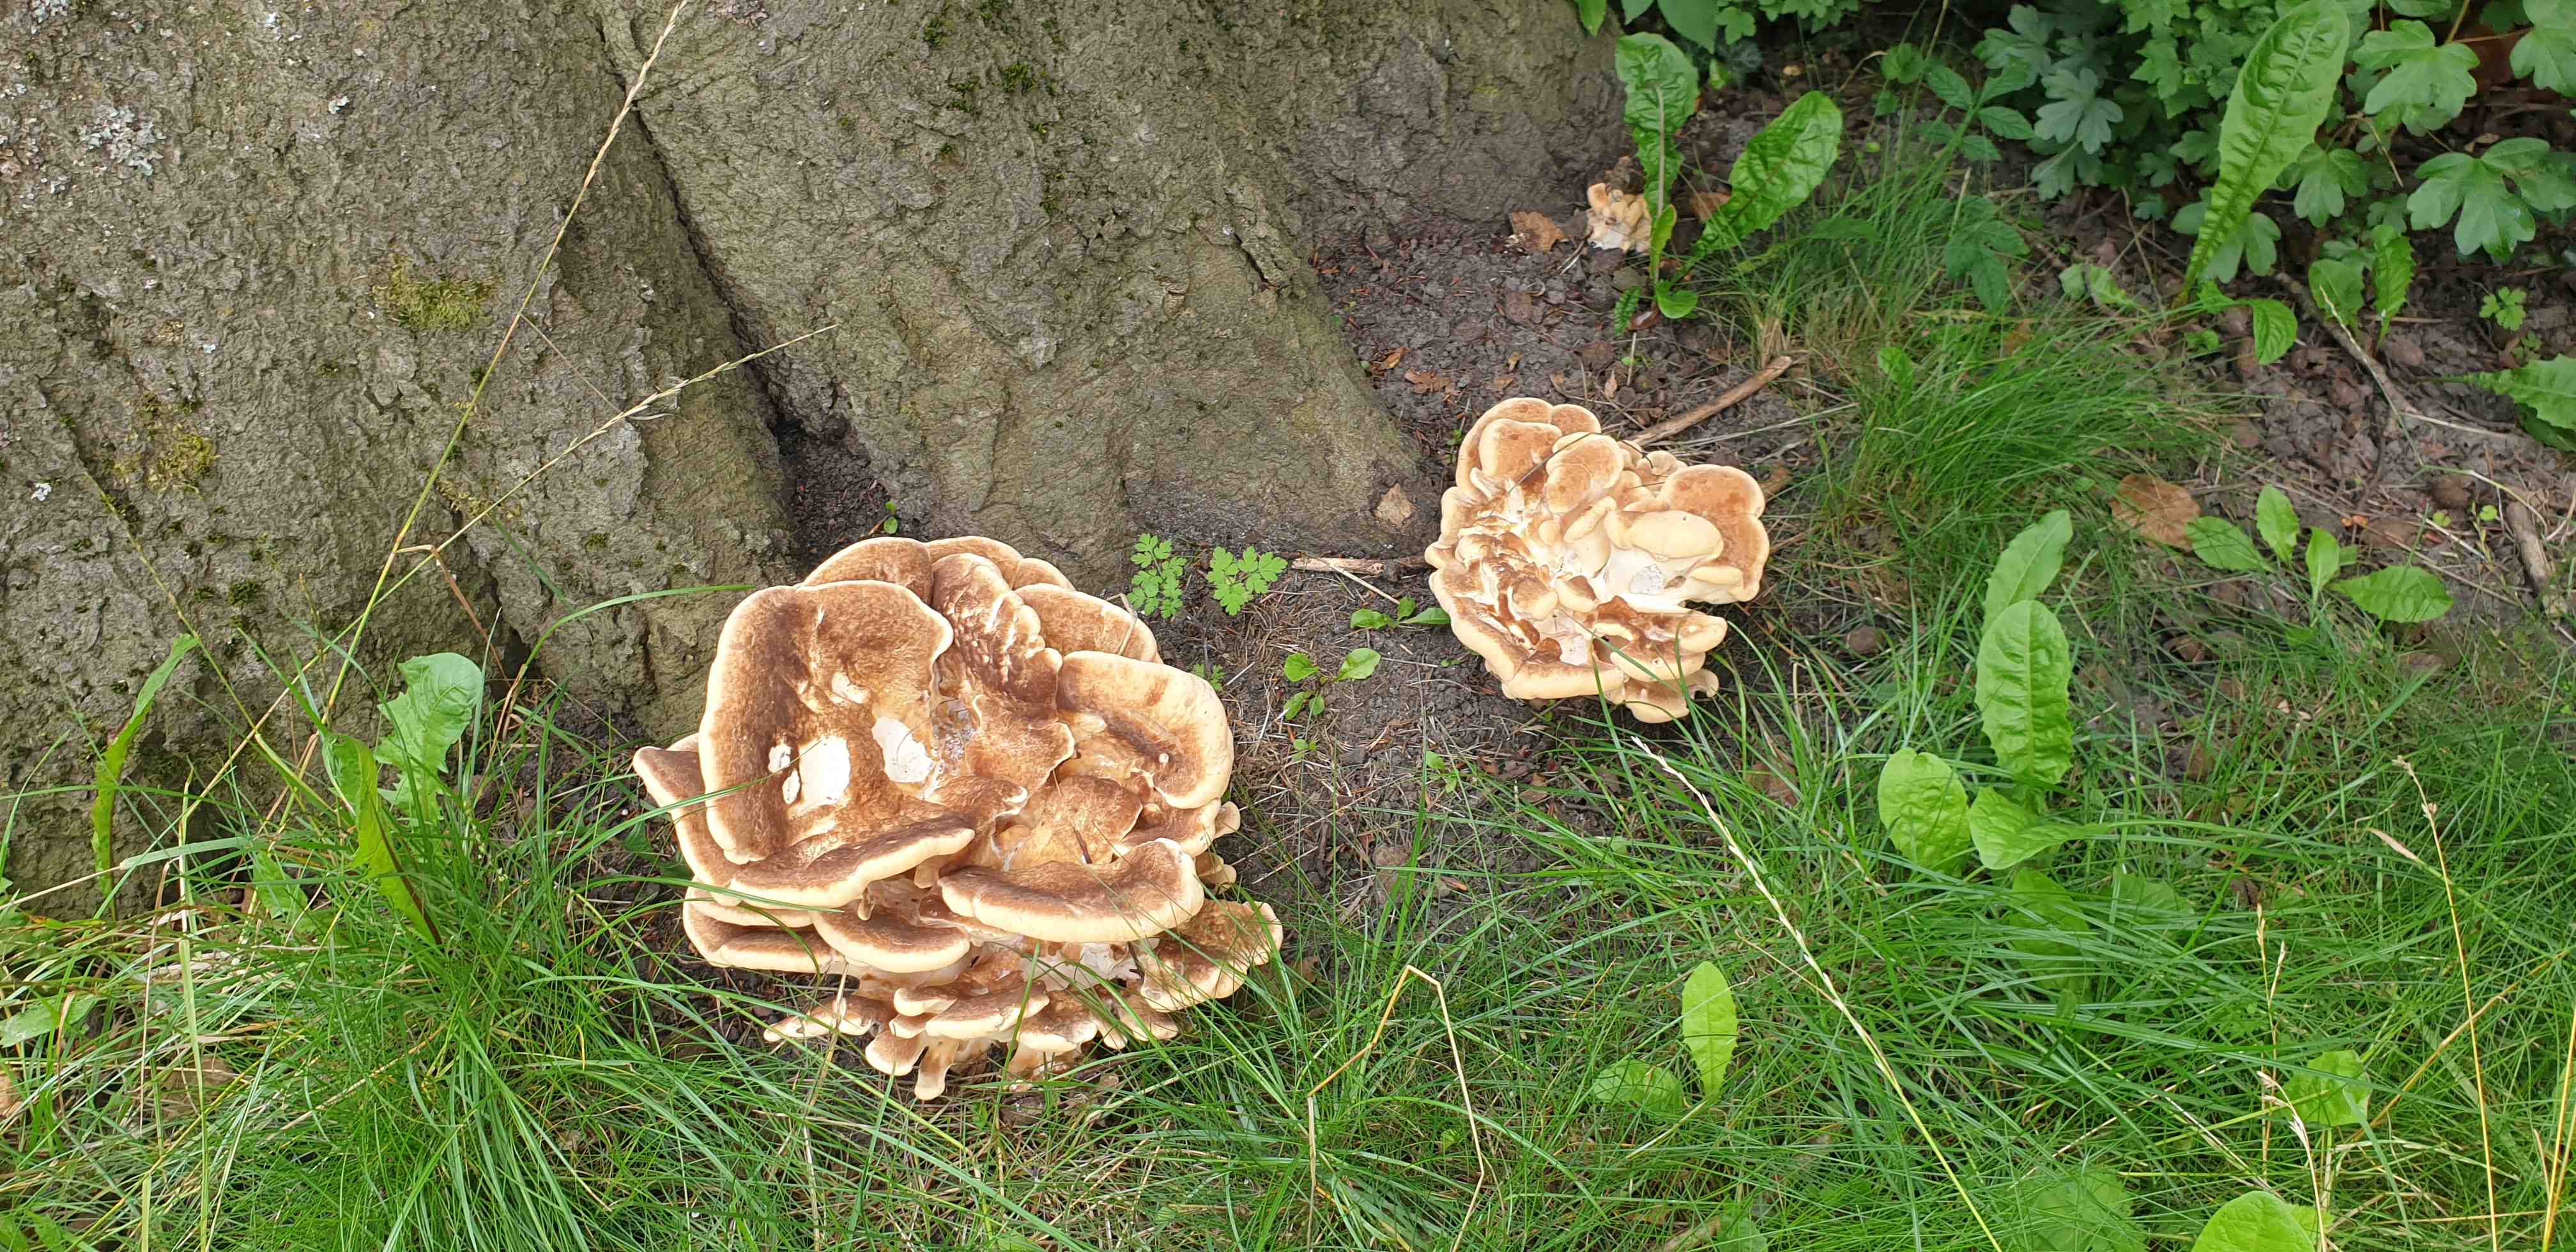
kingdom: Fungi
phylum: Basidiomycota
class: Agaricomycetes
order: Polyporales
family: Meripilaceae
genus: Meripilus
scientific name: Meripilus giganteus
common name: kæmpeporesvamp
